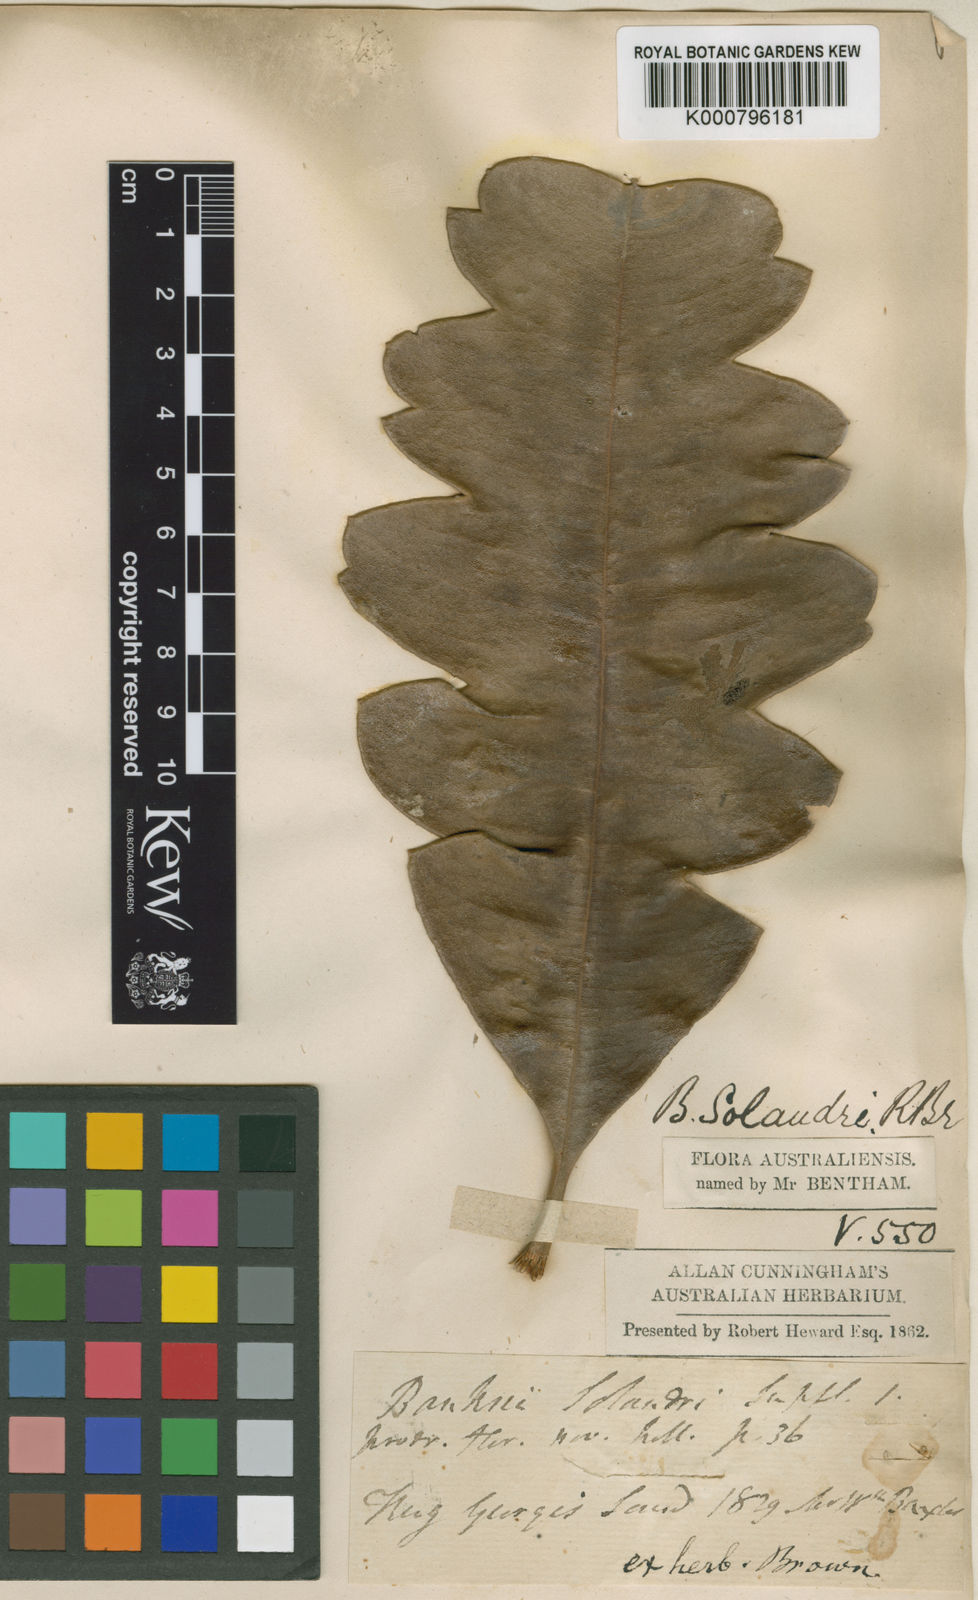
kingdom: Plantae
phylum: Tracheophyta
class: Magnoliopsida
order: Proteales
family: Proteaceae
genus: Banksia
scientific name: Banksia solandri
